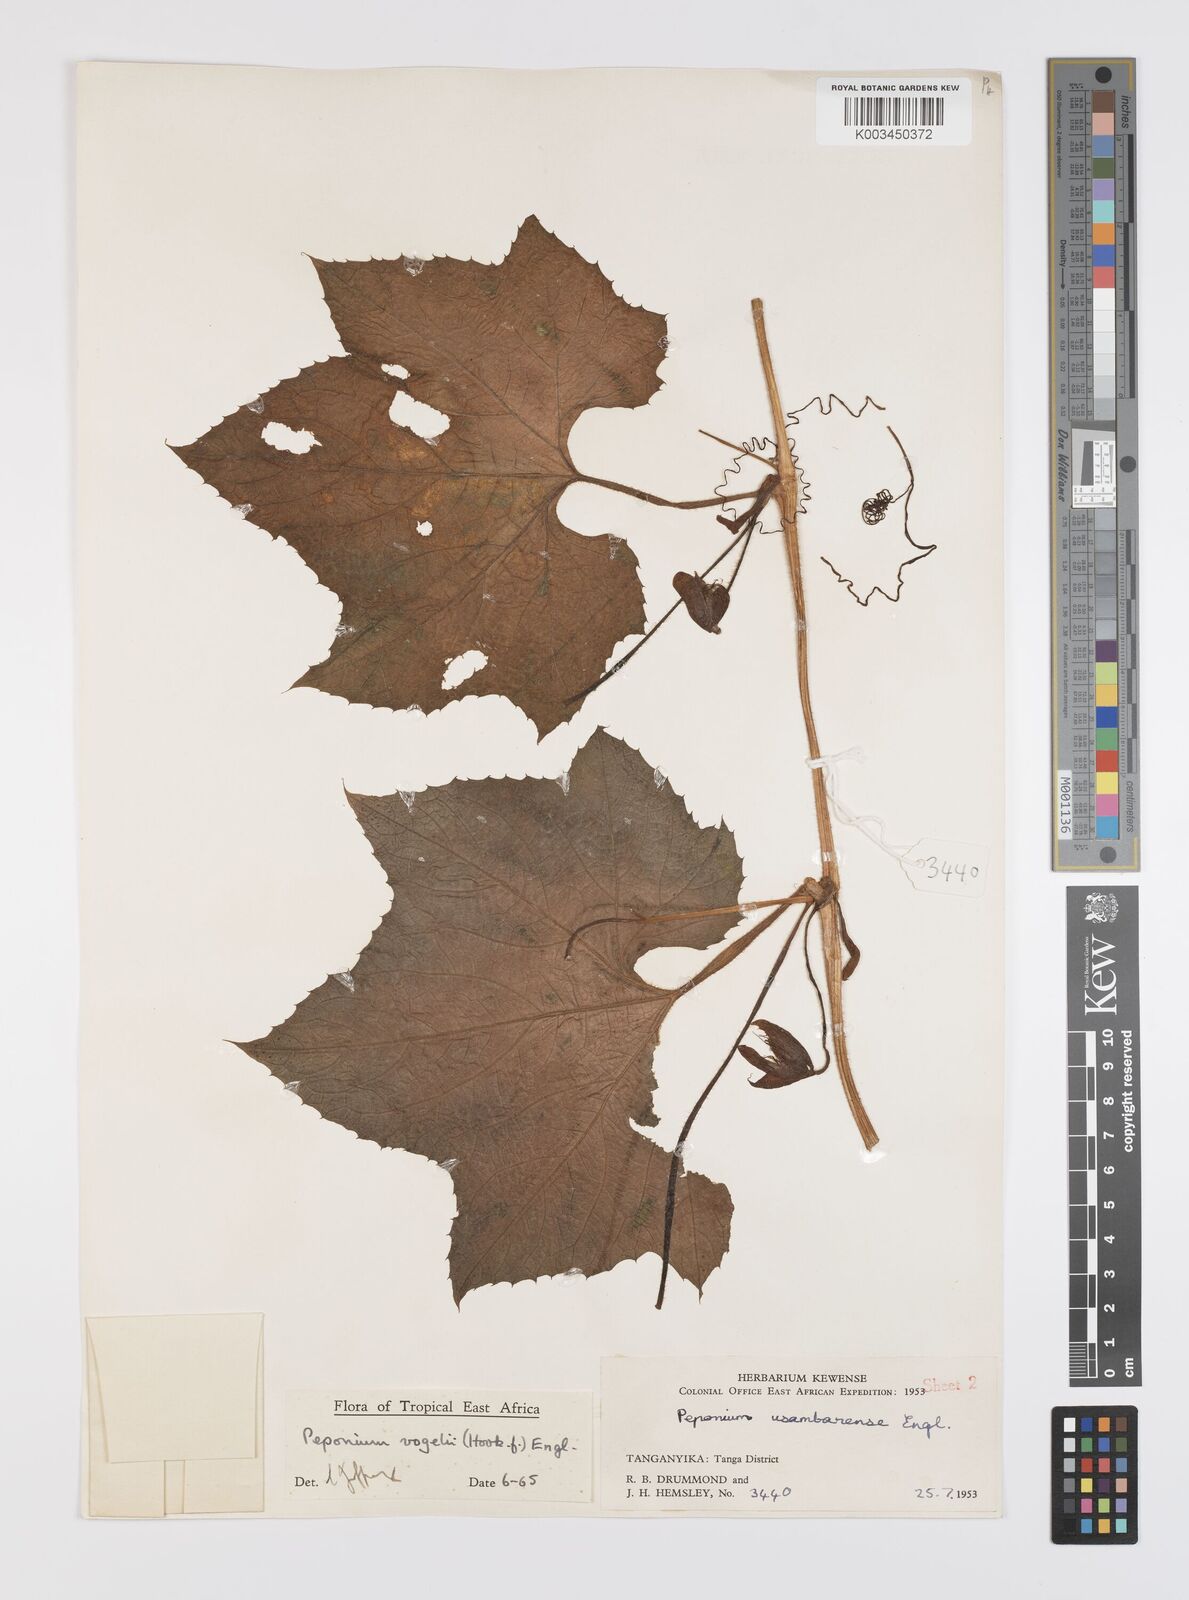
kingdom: Plantae
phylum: Tracheophyta
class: Magnoliopsida
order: Cucurbitales
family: Cucurbitaceae
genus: Peponium
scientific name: Peponium vogelii
